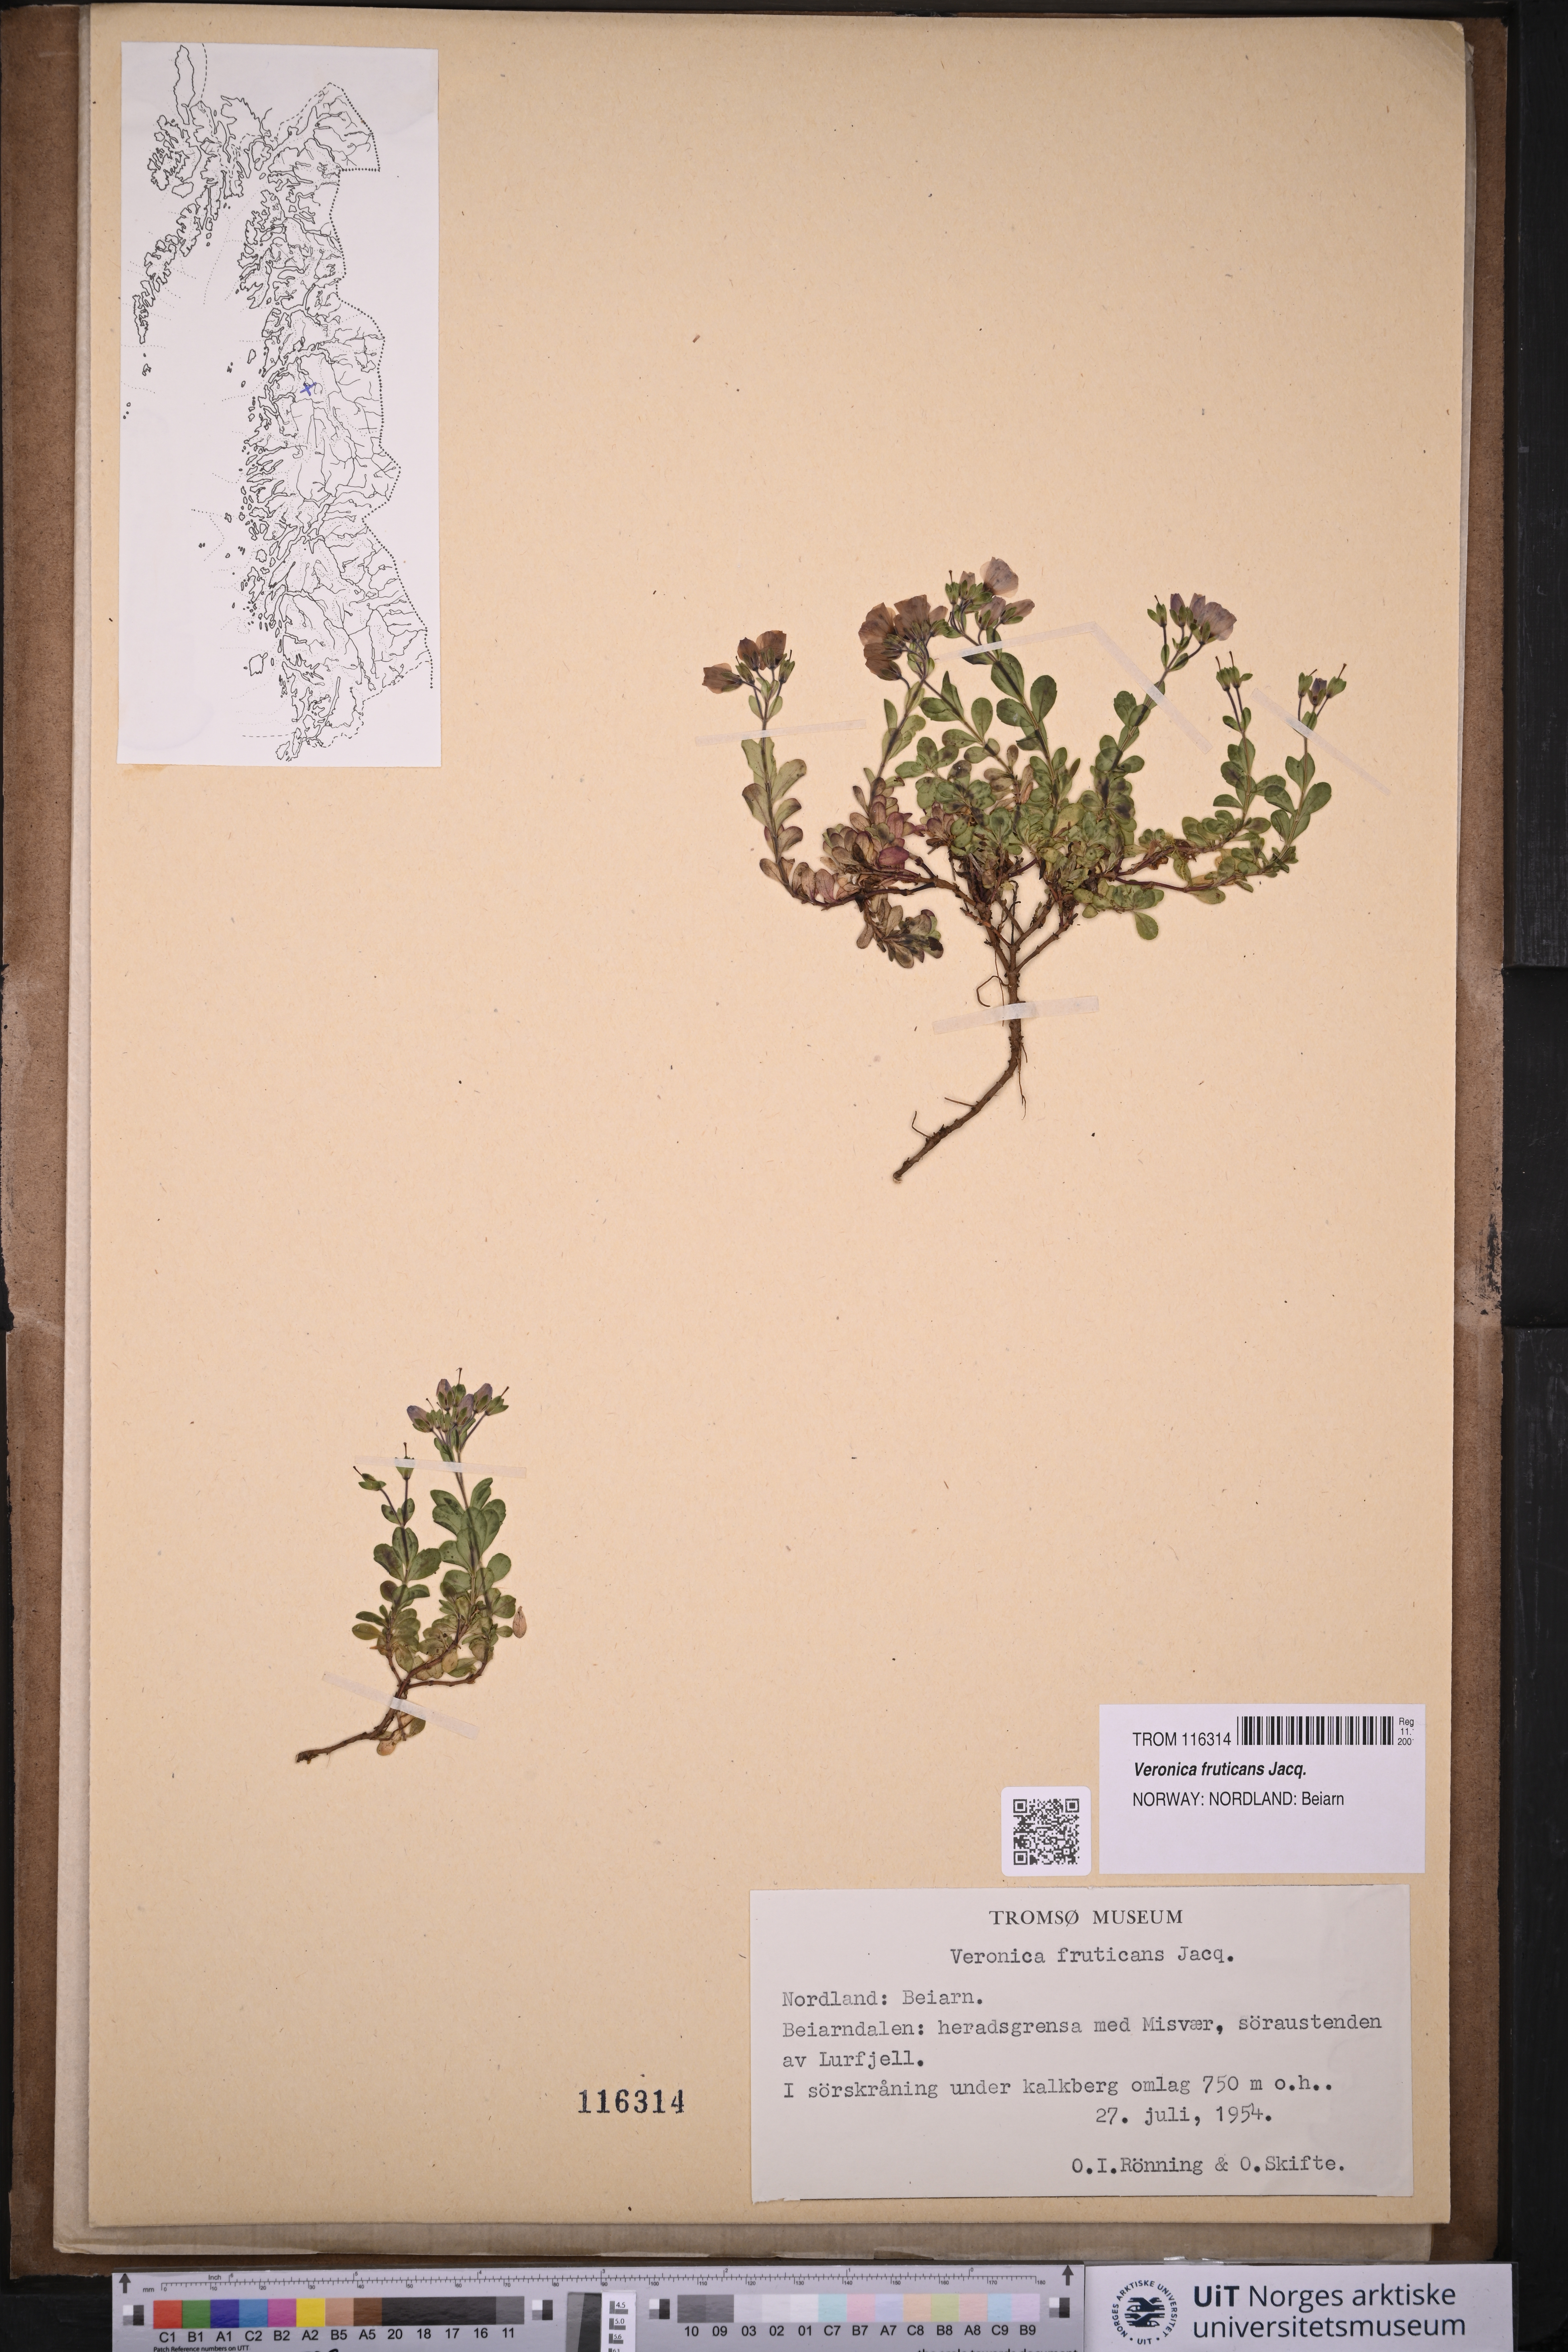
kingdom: Plantae
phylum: Tracheophyta
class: Magnoliopsida
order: Lamiales
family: Plantaginaceae
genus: Veronica
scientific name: Veronica fruticans
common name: Rock speedwell
